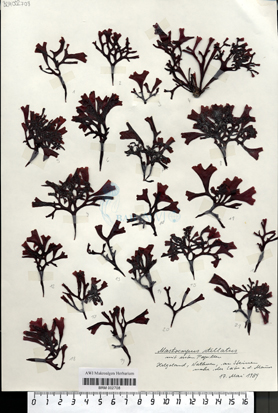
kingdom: Plantae
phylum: Rhodophyta
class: Florideophyceae
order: Gigartinales
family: Phyllophoraceae
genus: Mastocarpus
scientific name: Mastocarpus stellatus
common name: False irish moss
